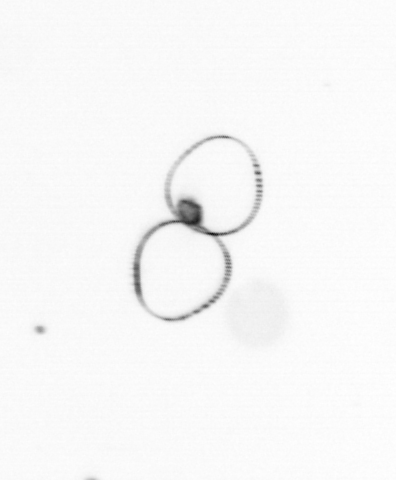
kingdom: Chromista
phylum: Myzozoa
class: Dinophyceae
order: Noctilucales
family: Noctilucaceae
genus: Noctiluca
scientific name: Noctiluca scintillans
